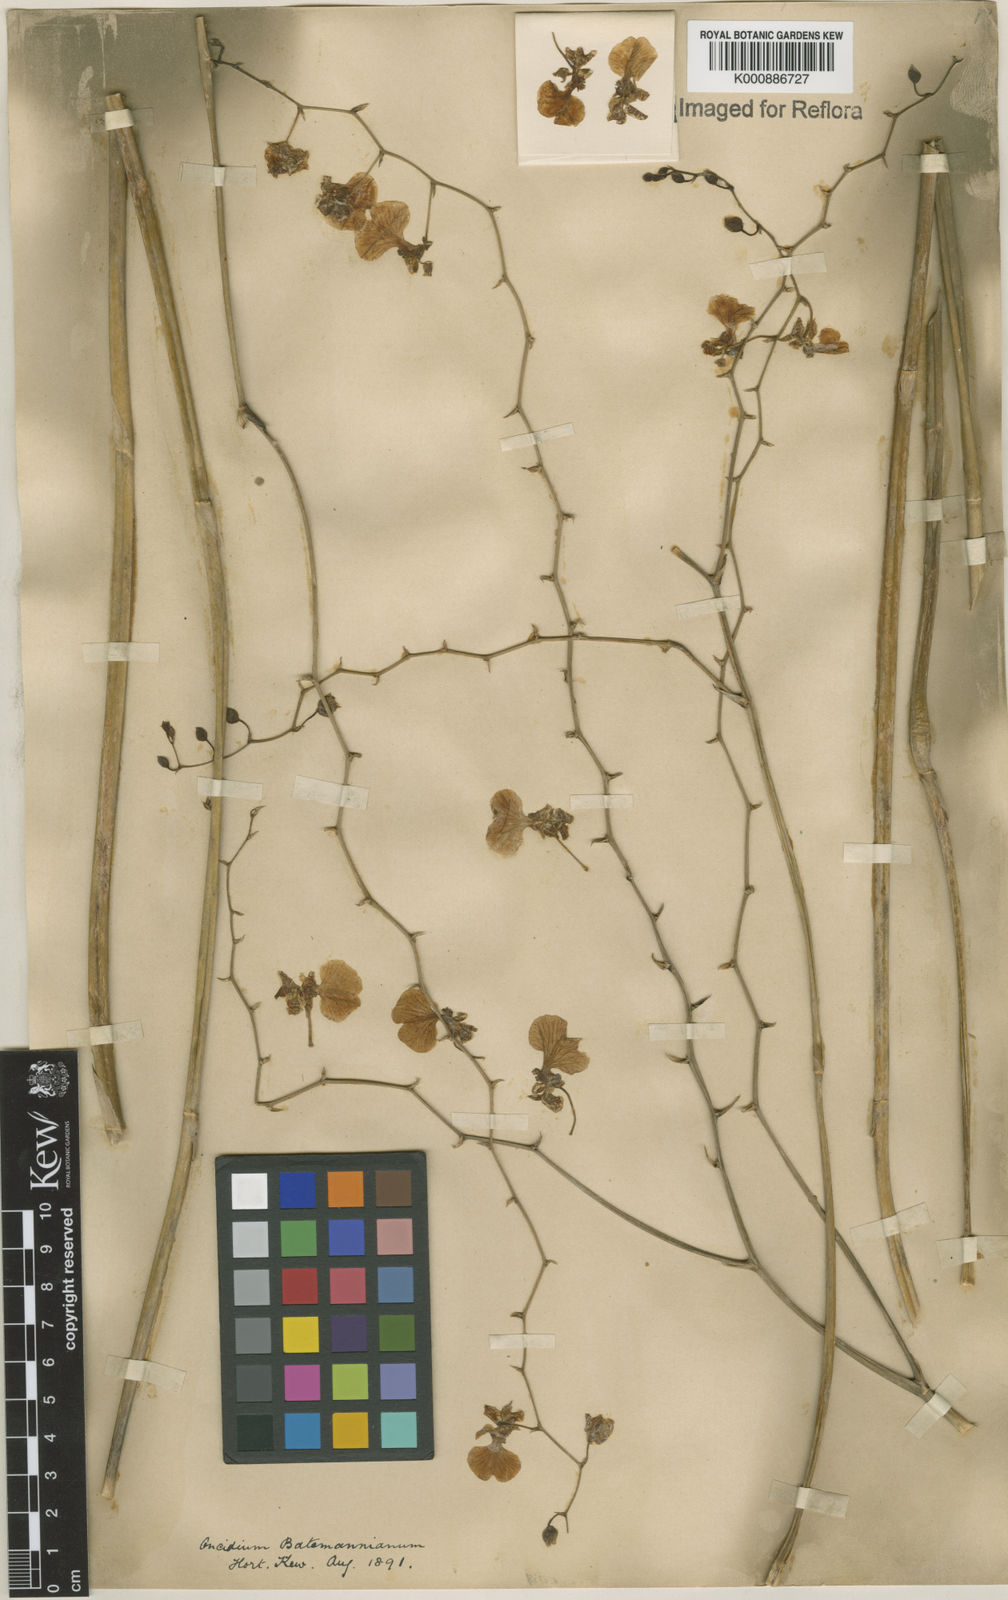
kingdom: Plantae
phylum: Tracheophyta
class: Liliopsida
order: Asparagales
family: Orchidaceae
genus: Gomesa
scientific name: Gomesa ramosa
